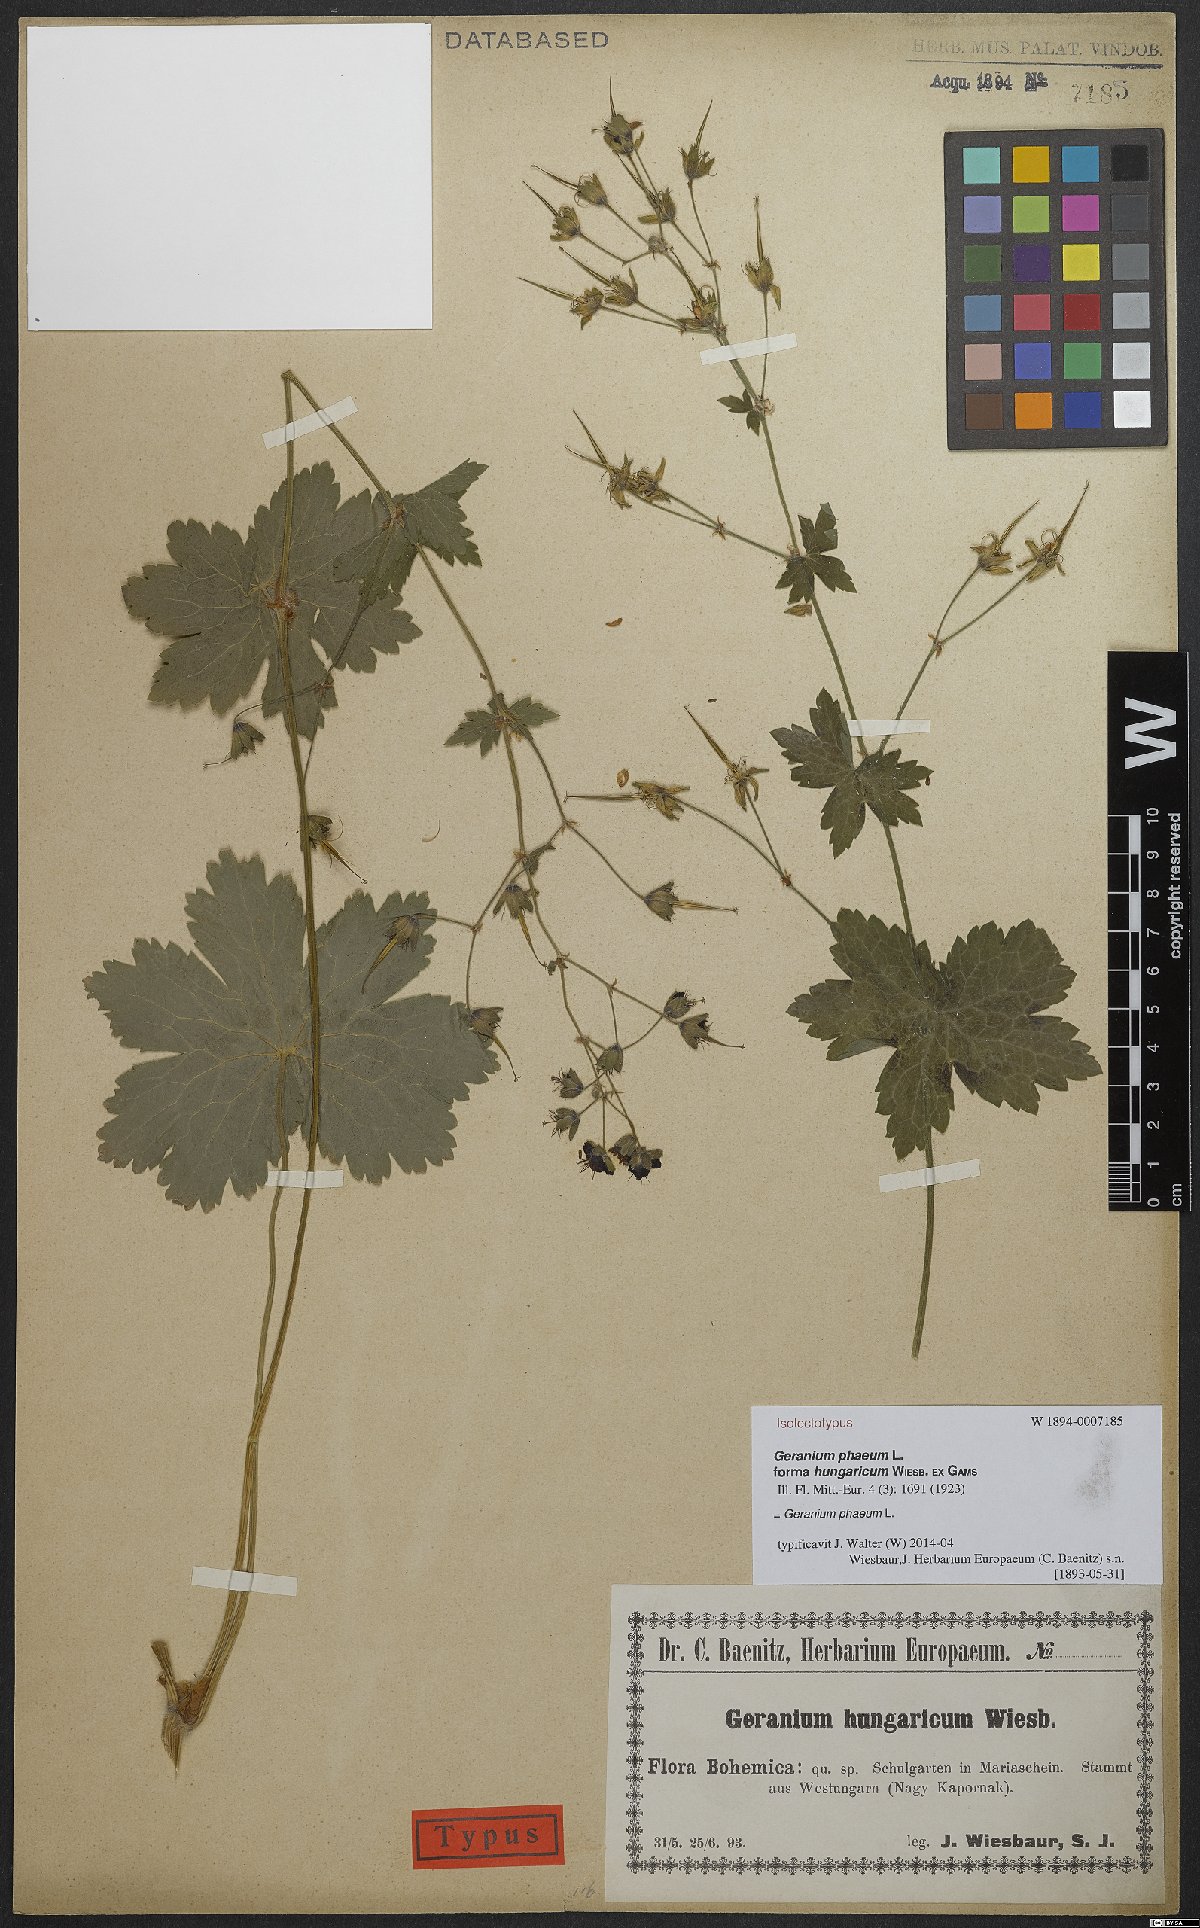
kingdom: Plantae
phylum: Tracheophyta
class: Magnoliopsida
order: Geraniales
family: Geraniaceae
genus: Geranium
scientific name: Geranium phaeum
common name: Dusky crane's-bill
